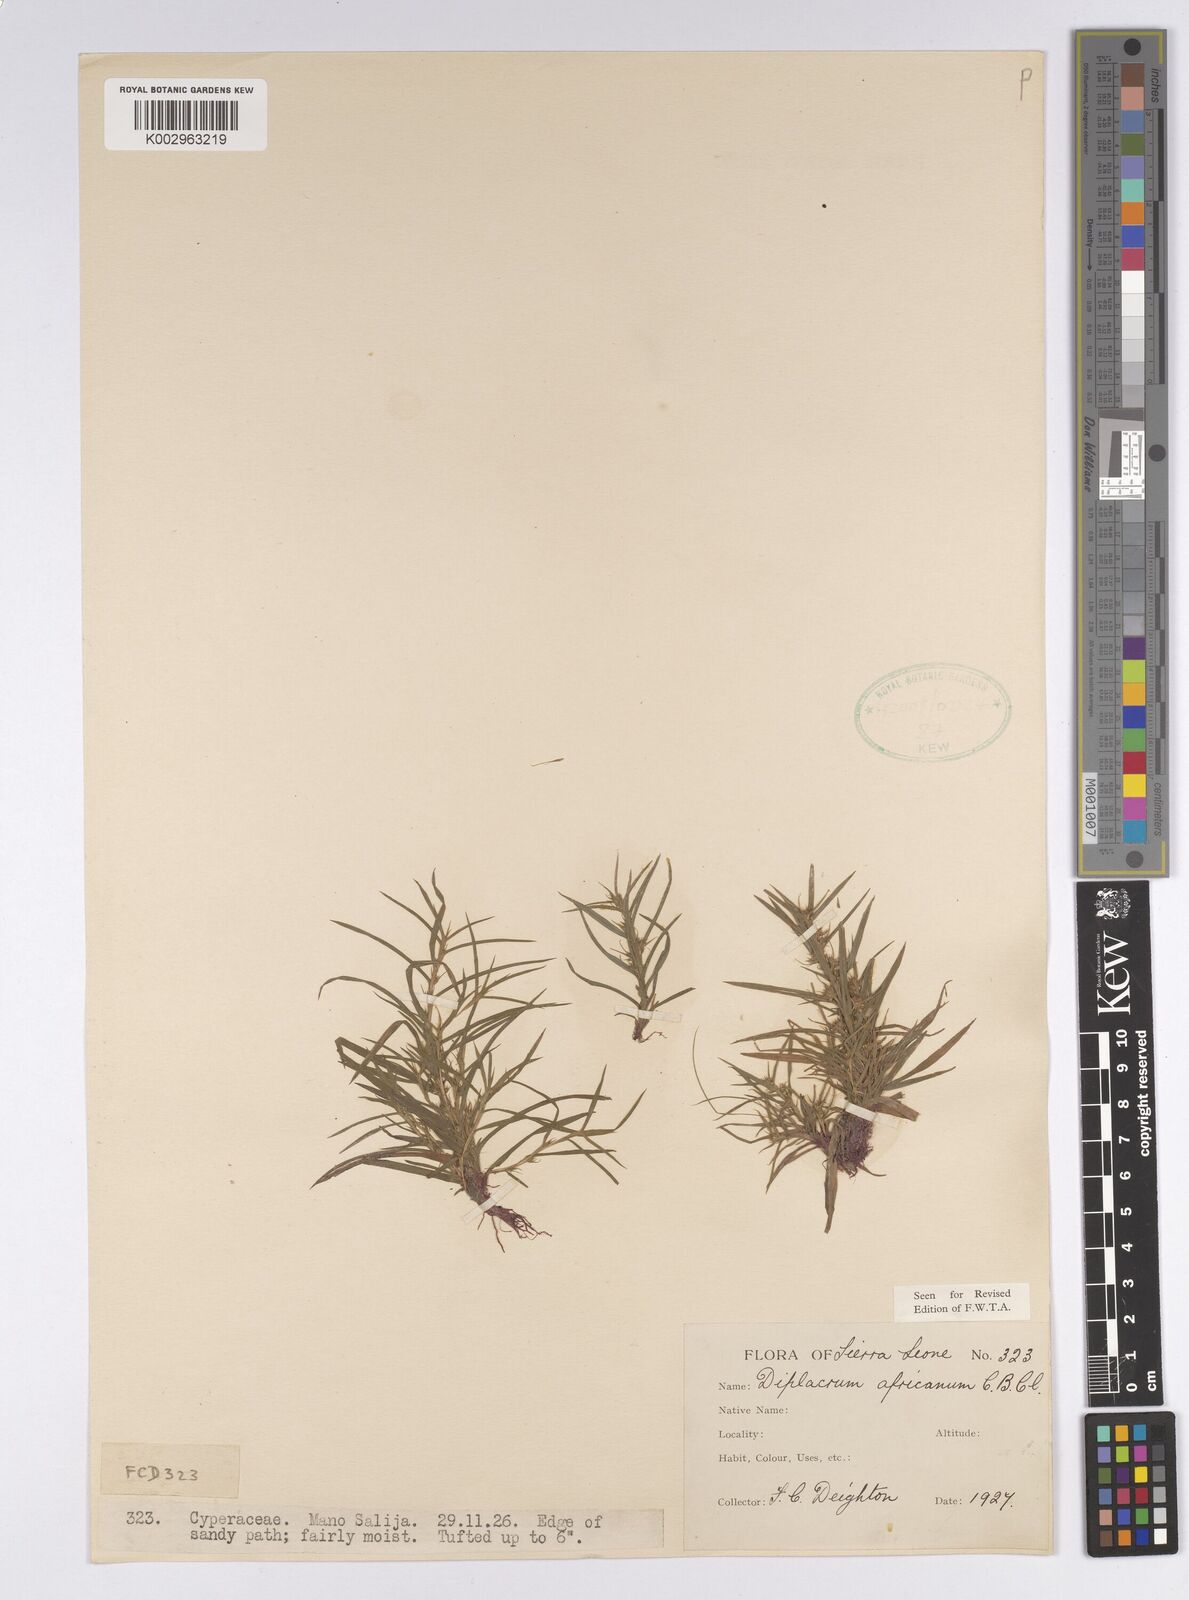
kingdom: Plantae
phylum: Tracheophyta
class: Liliopsida
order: Poales
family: Cyperaceae
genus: Diplacrum
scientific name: Diplacrum africanum
